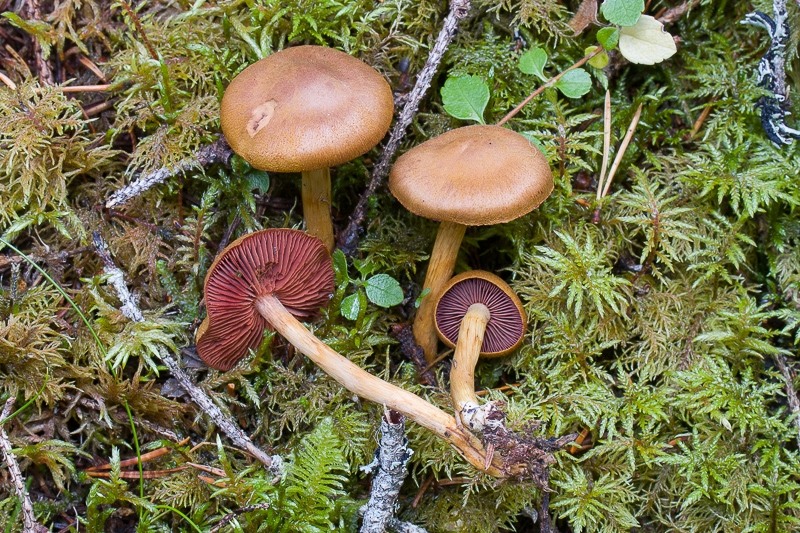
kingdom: Fungi
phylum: Basidiomycota
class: Agaricomycetes
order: Agaricales
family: Cortinariaceae
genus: Cortinarius
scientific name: Cortinarius semisanguineus
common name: Surprise webcap
